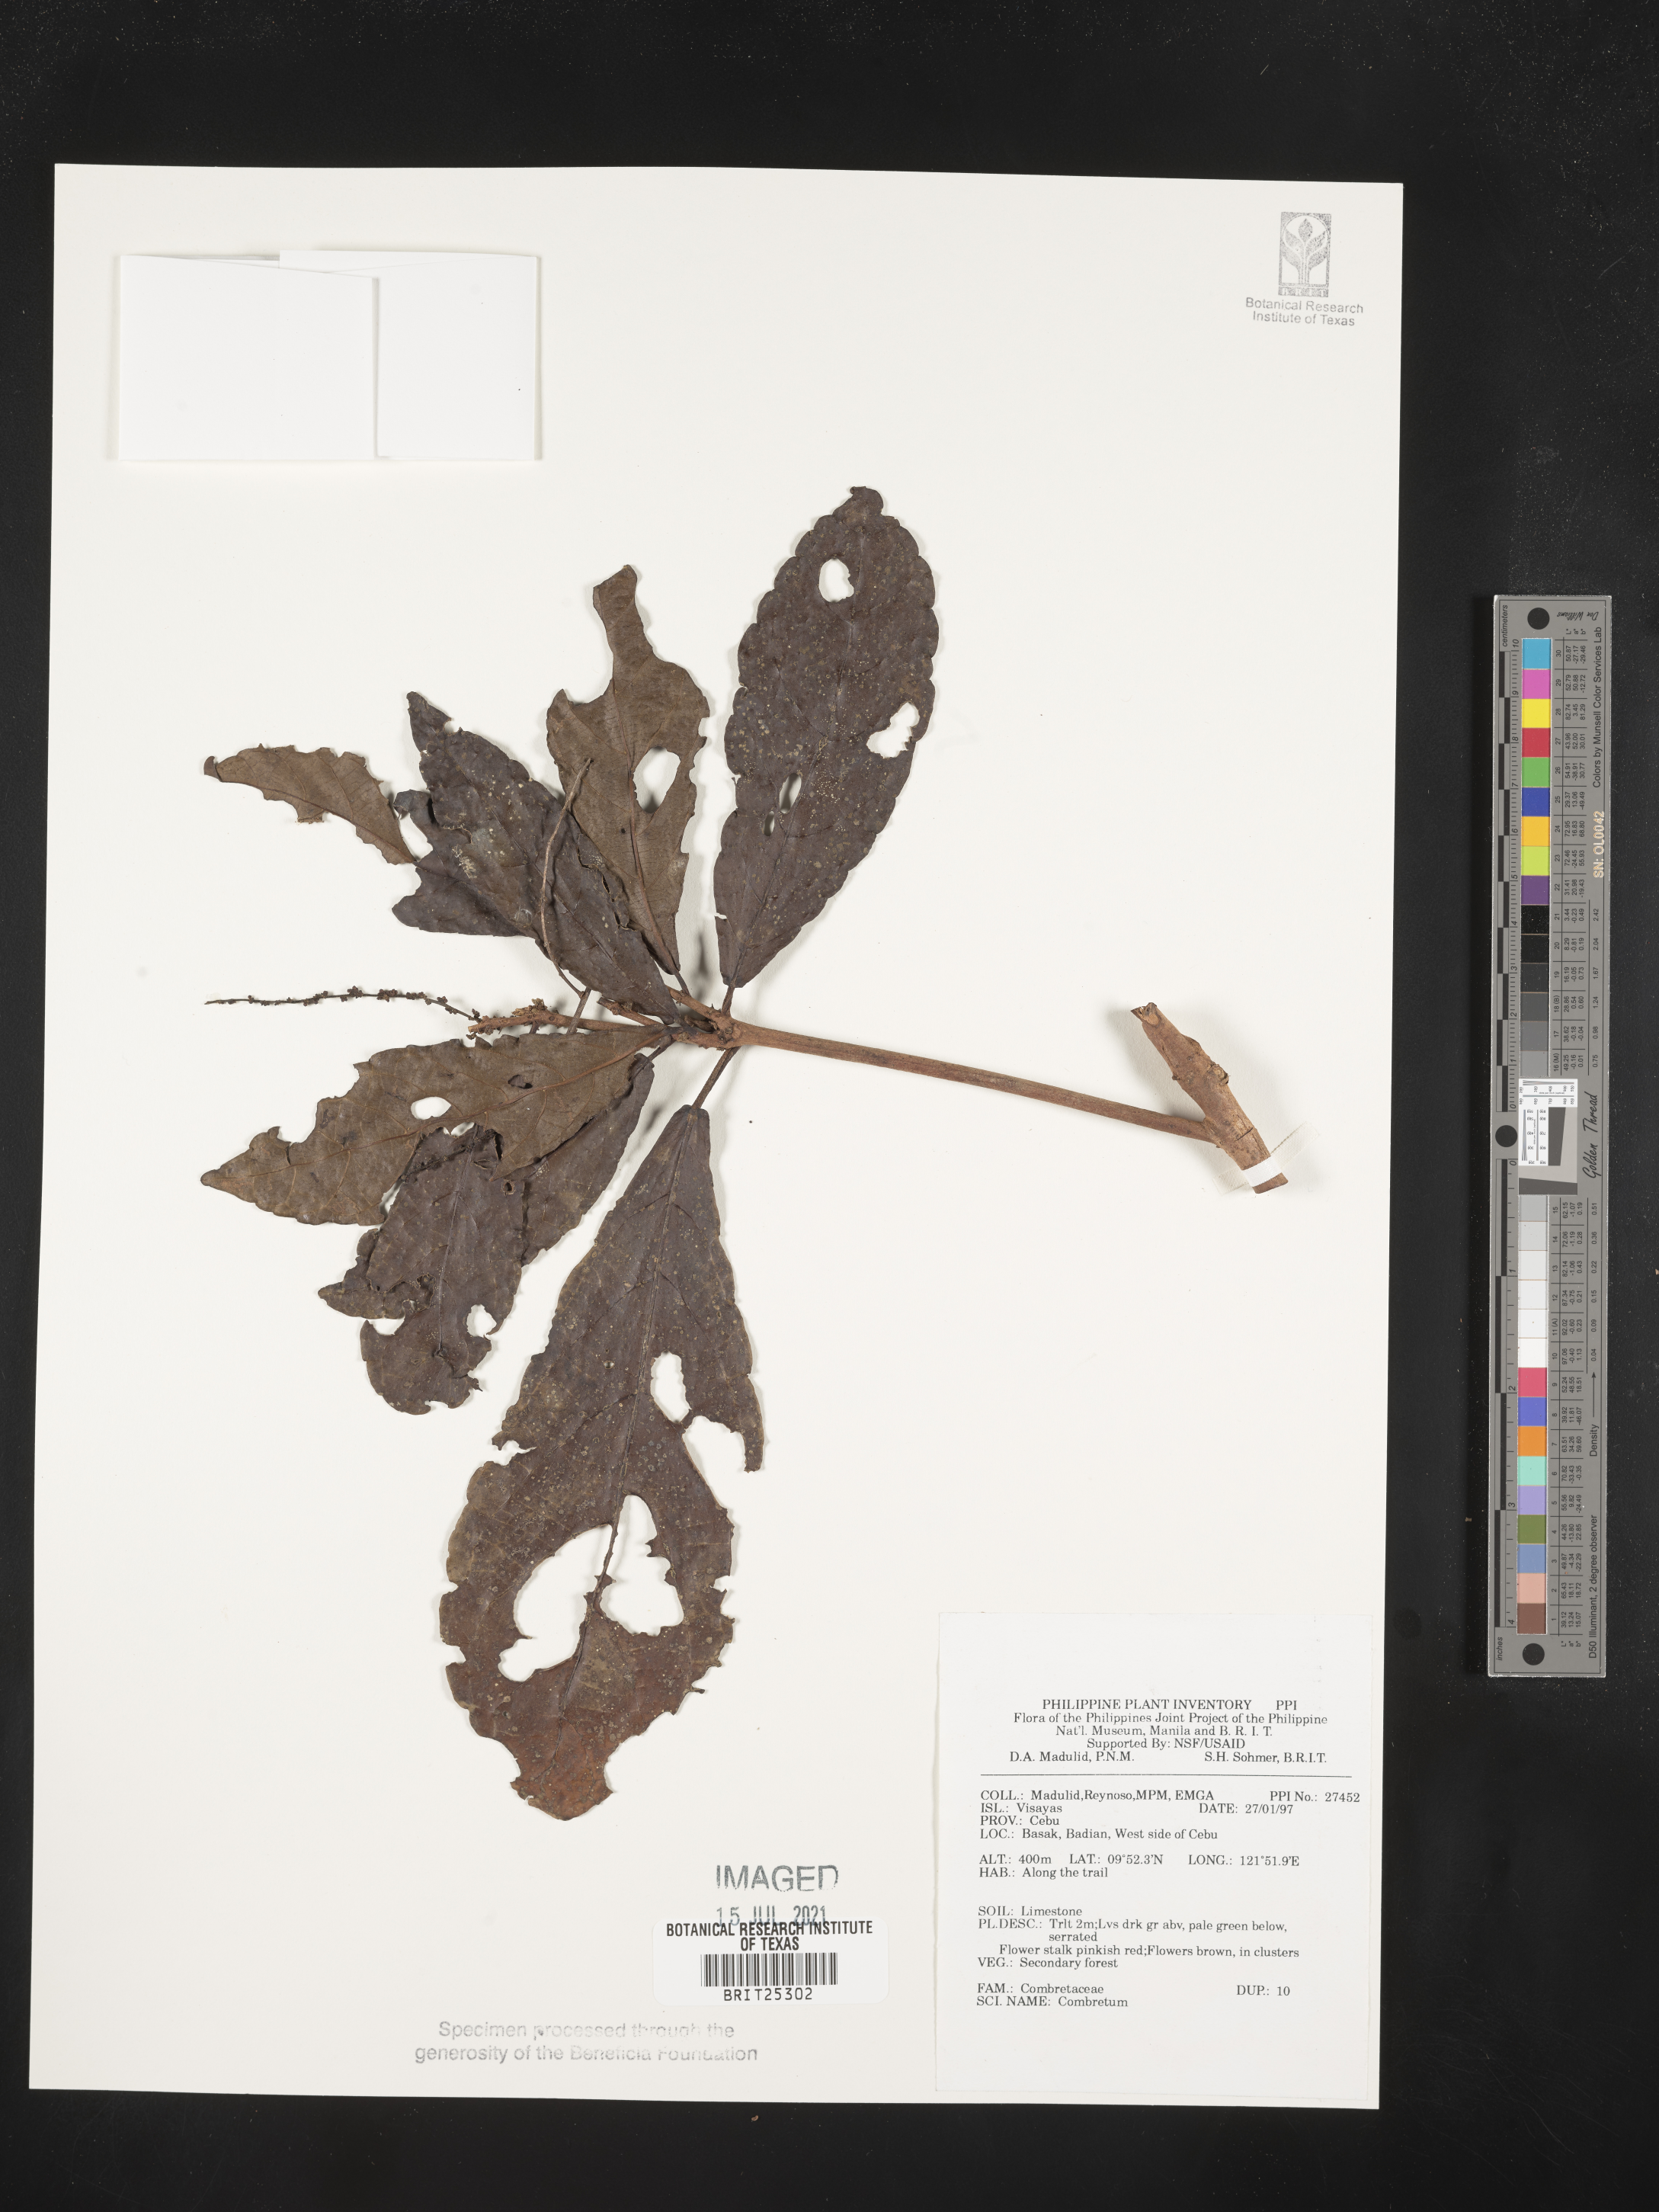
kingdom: Plantae
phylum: Tracheophyta
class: Magnoliopsida
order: Myrtales
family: Combretaceae
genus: Combretum
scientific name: Combretum
